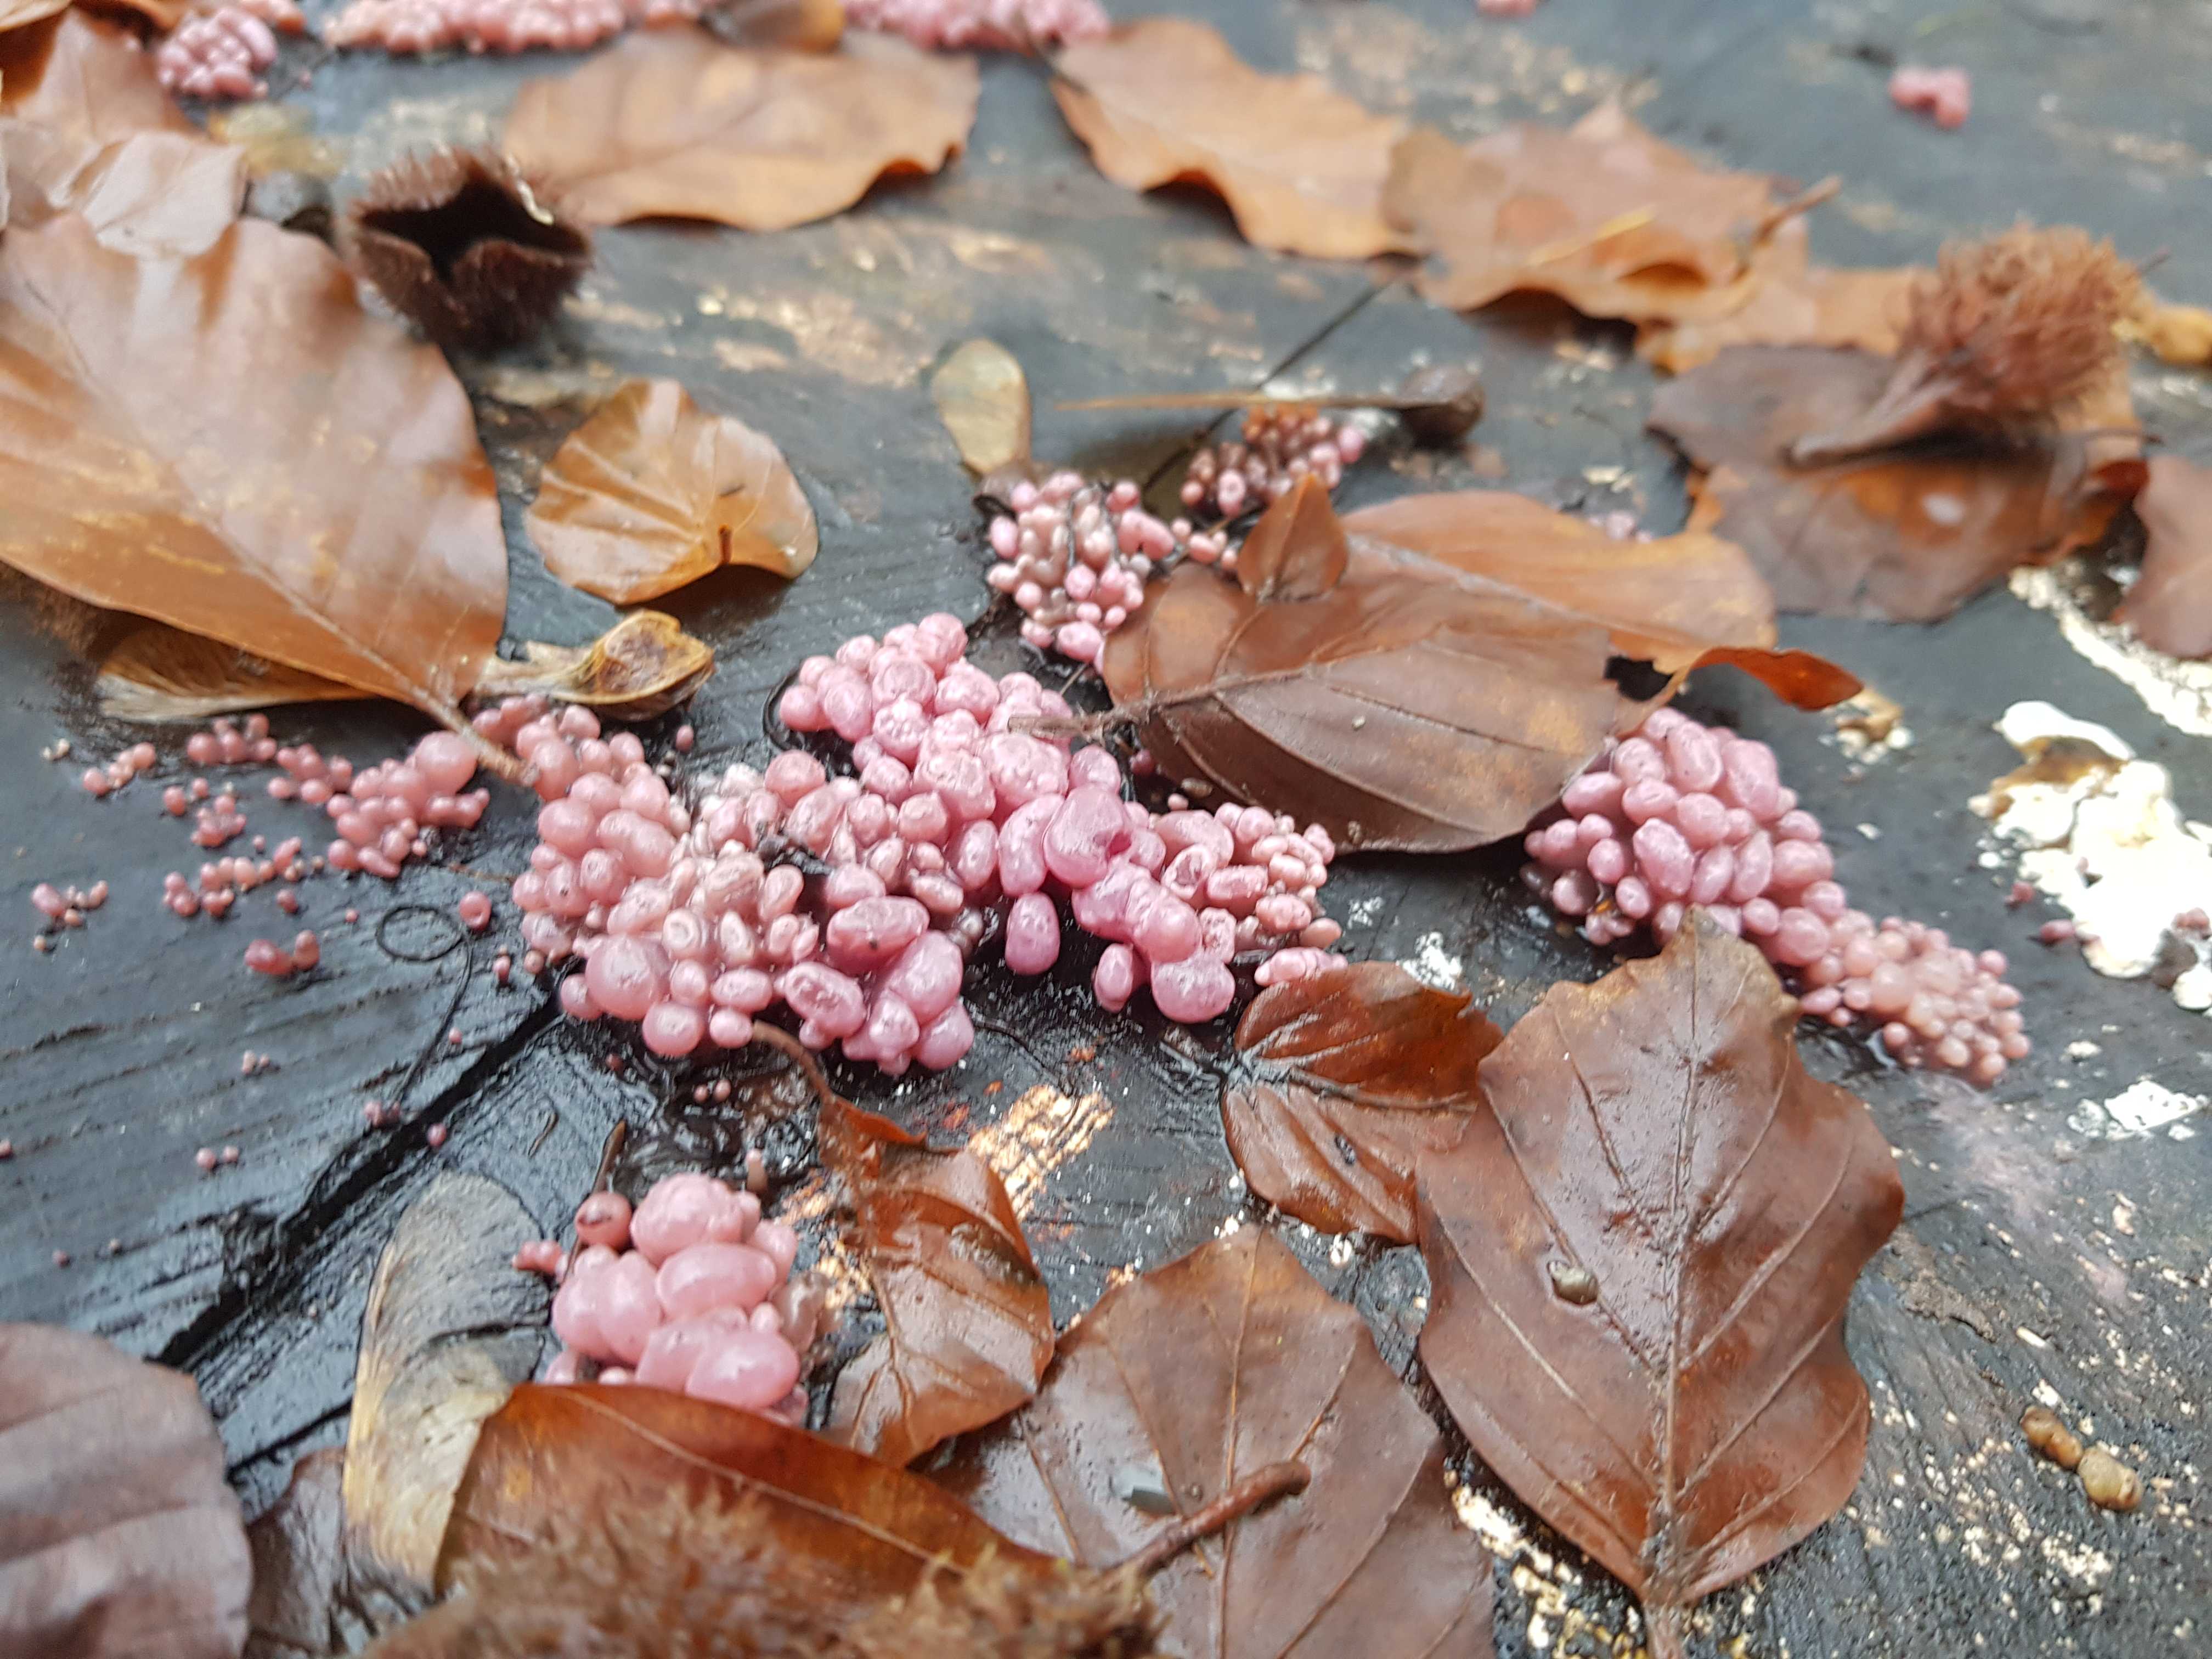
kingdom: Fungi
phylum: Ascomycota
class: Leotiomycetes
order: Helotiales
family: Gelatinodiscaceae
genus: Ascocoryne
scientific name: Ascocoryne sarcoides
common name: rødlilla sejskive
